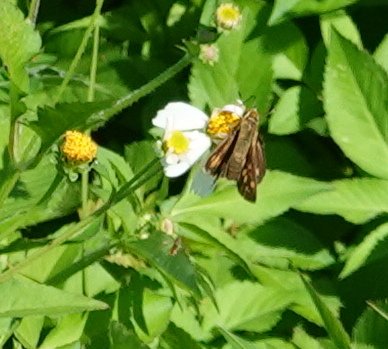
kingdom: Animalia
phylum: Arthropoda
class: Insecta
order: Lepidoptera
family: Hesperiidae
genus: Hylephila
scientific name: Hylephila phyleus
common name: Fiery Skipper
